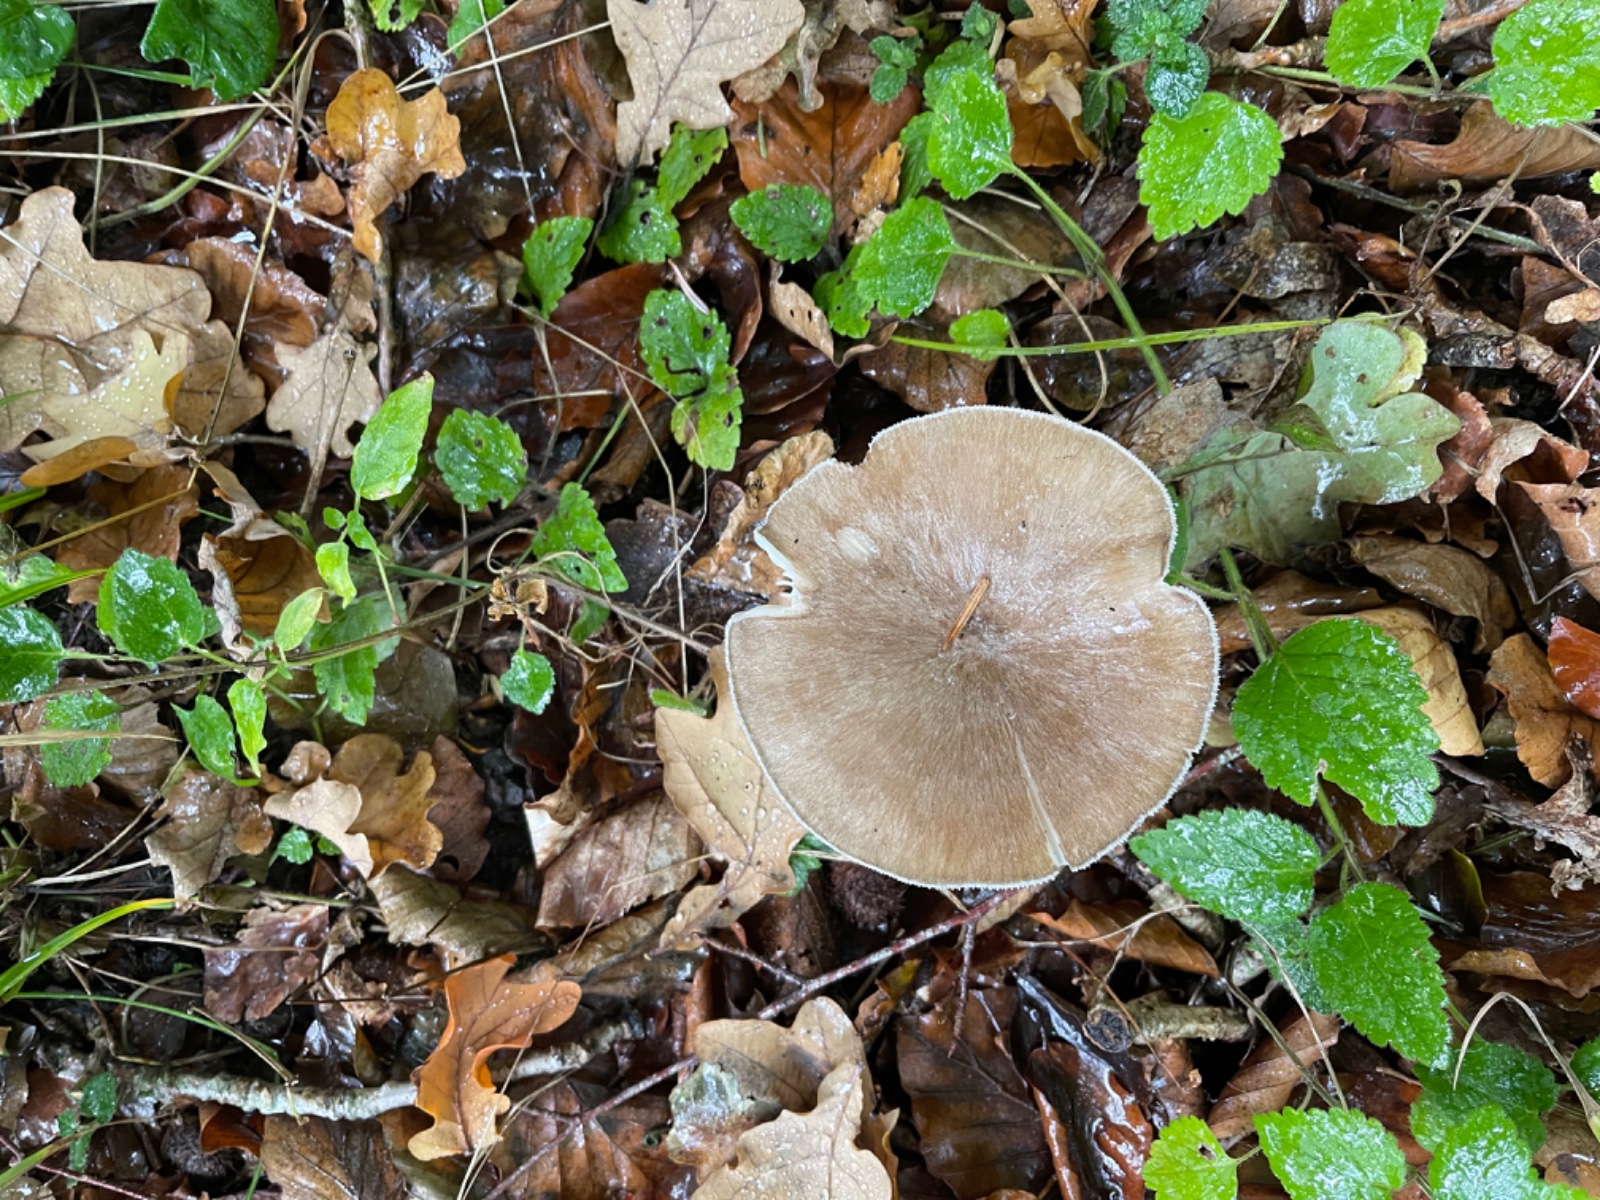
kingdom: Fungi
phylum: Basidiomycota
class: Agaricomycetes
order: Agaricales
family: Tricholomataceae
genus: Megacollybia
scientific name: Megacollybia platyphylla
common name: bredbladet væbnerhat
